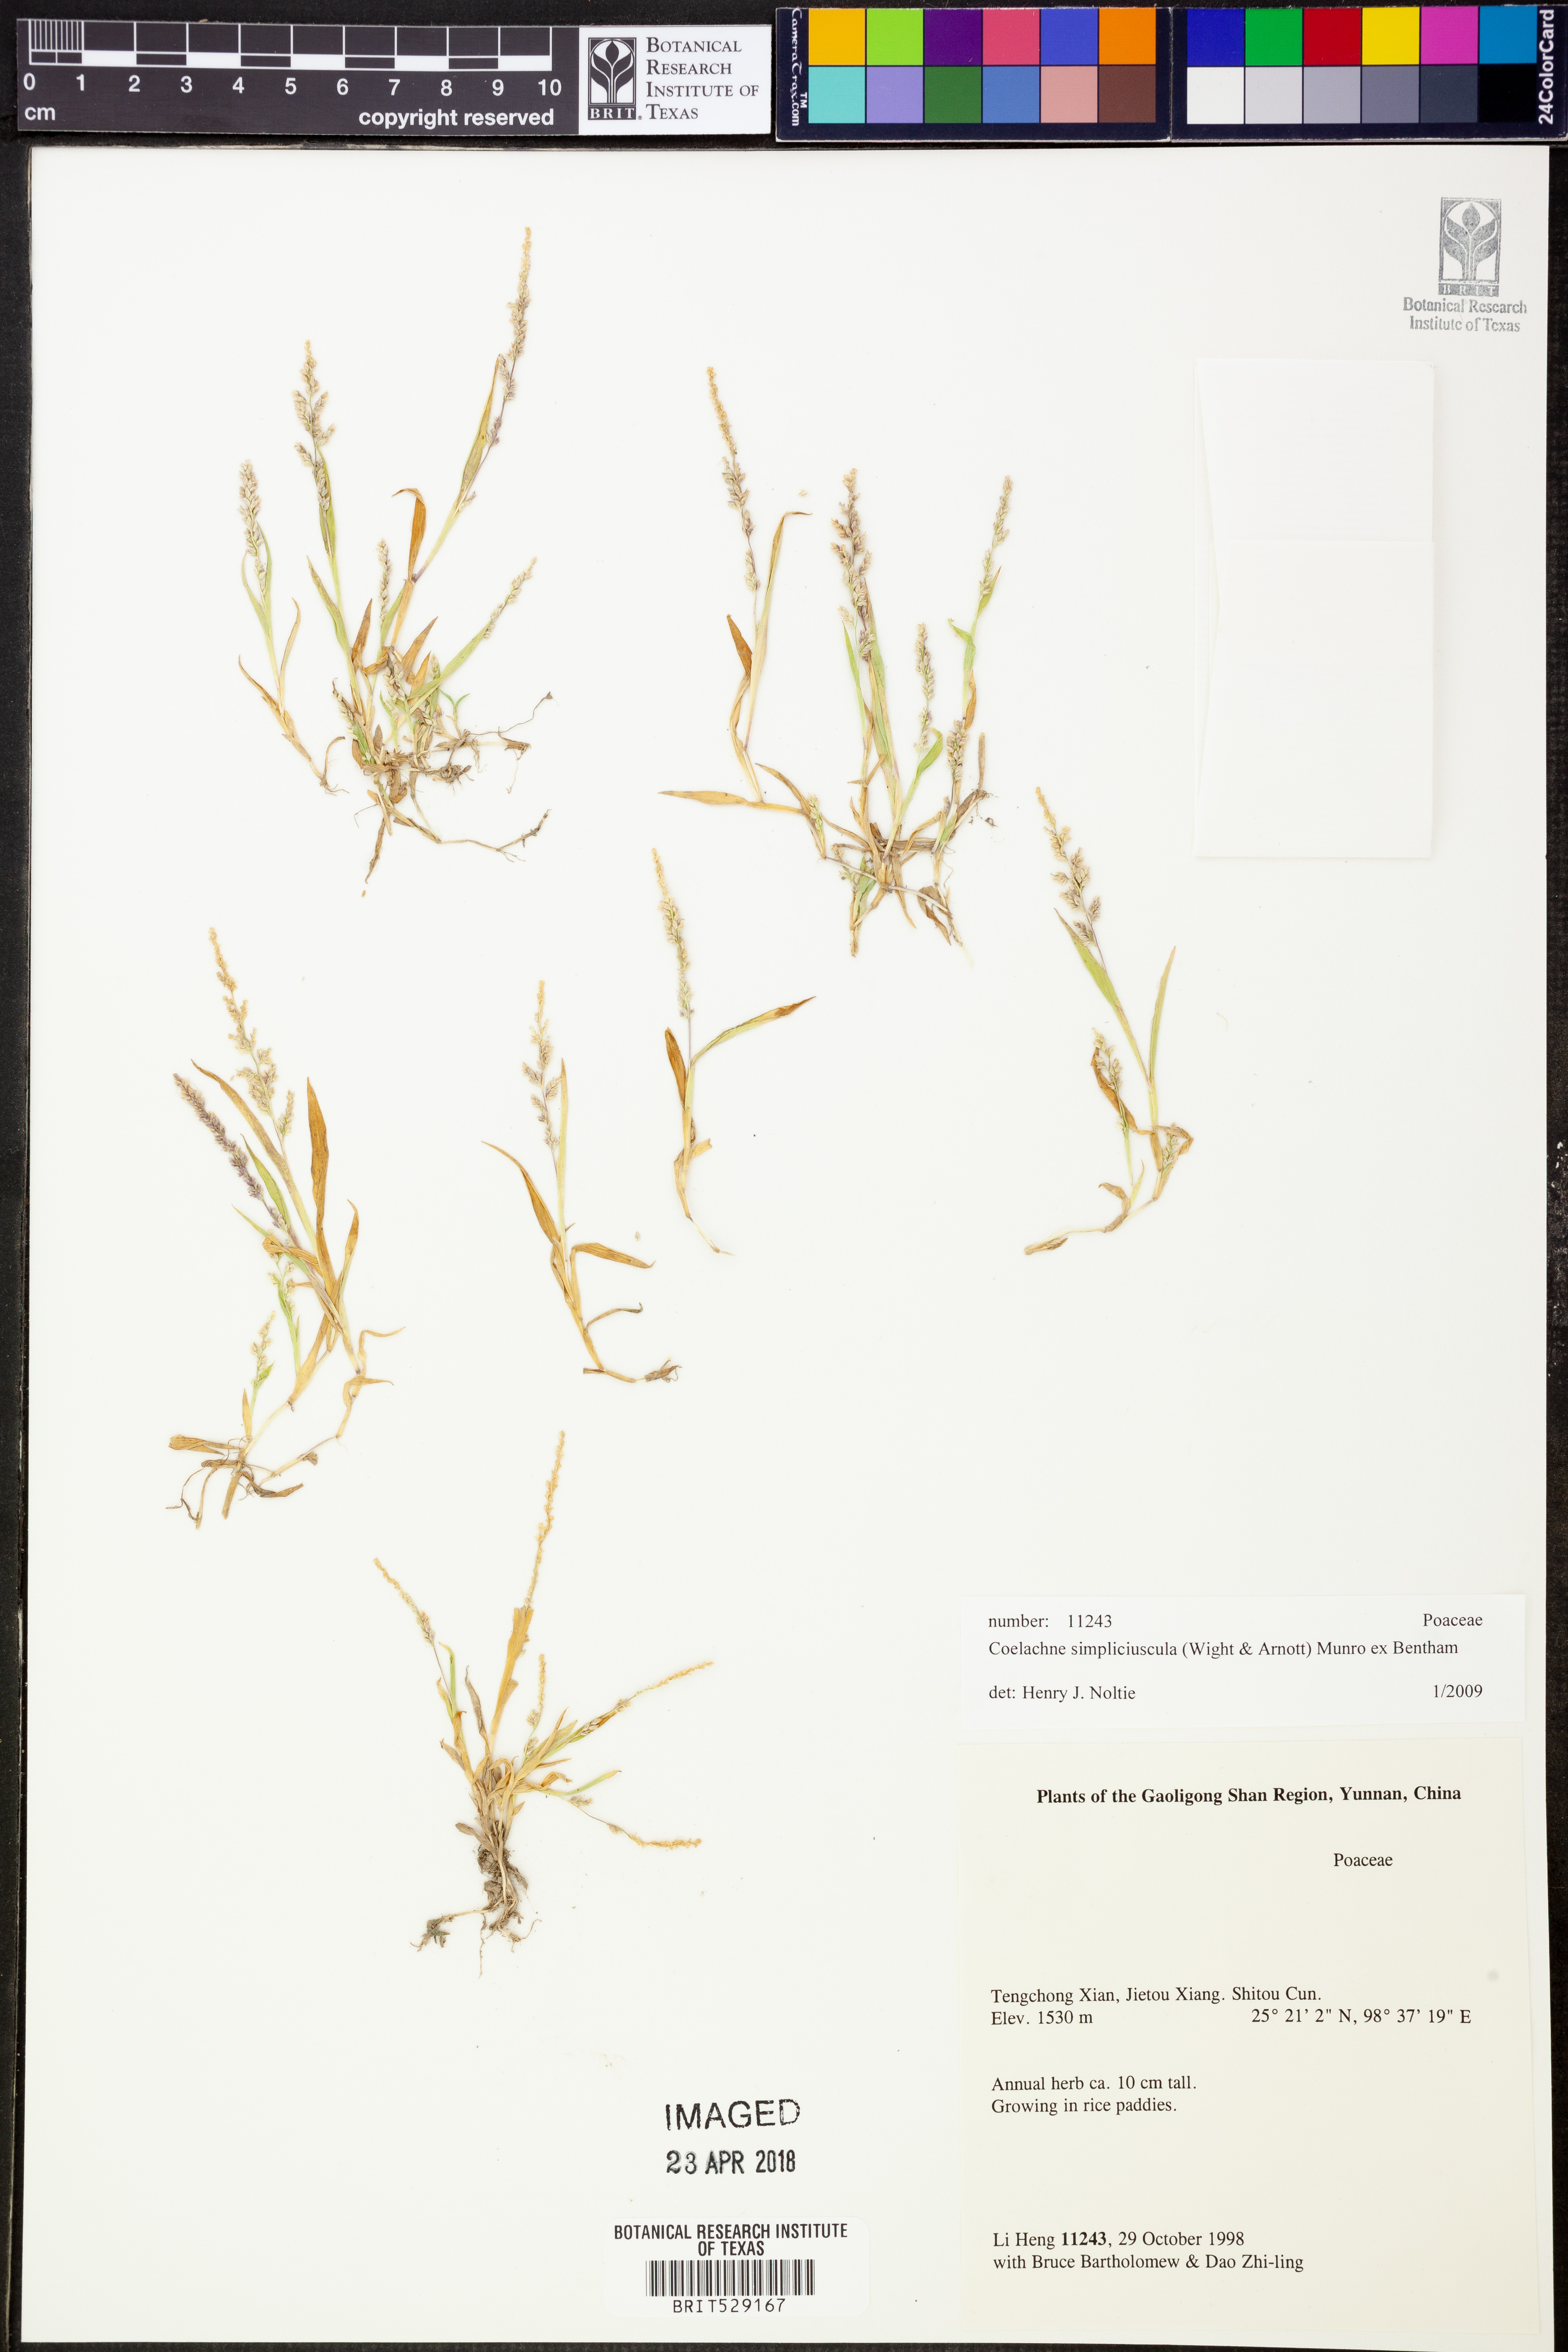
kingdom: Plantae
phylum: Tracheophyta
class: Liliopsida
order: Poales
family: Poaceae
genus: Coelachne
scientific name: Coelachne simpliciuscula
